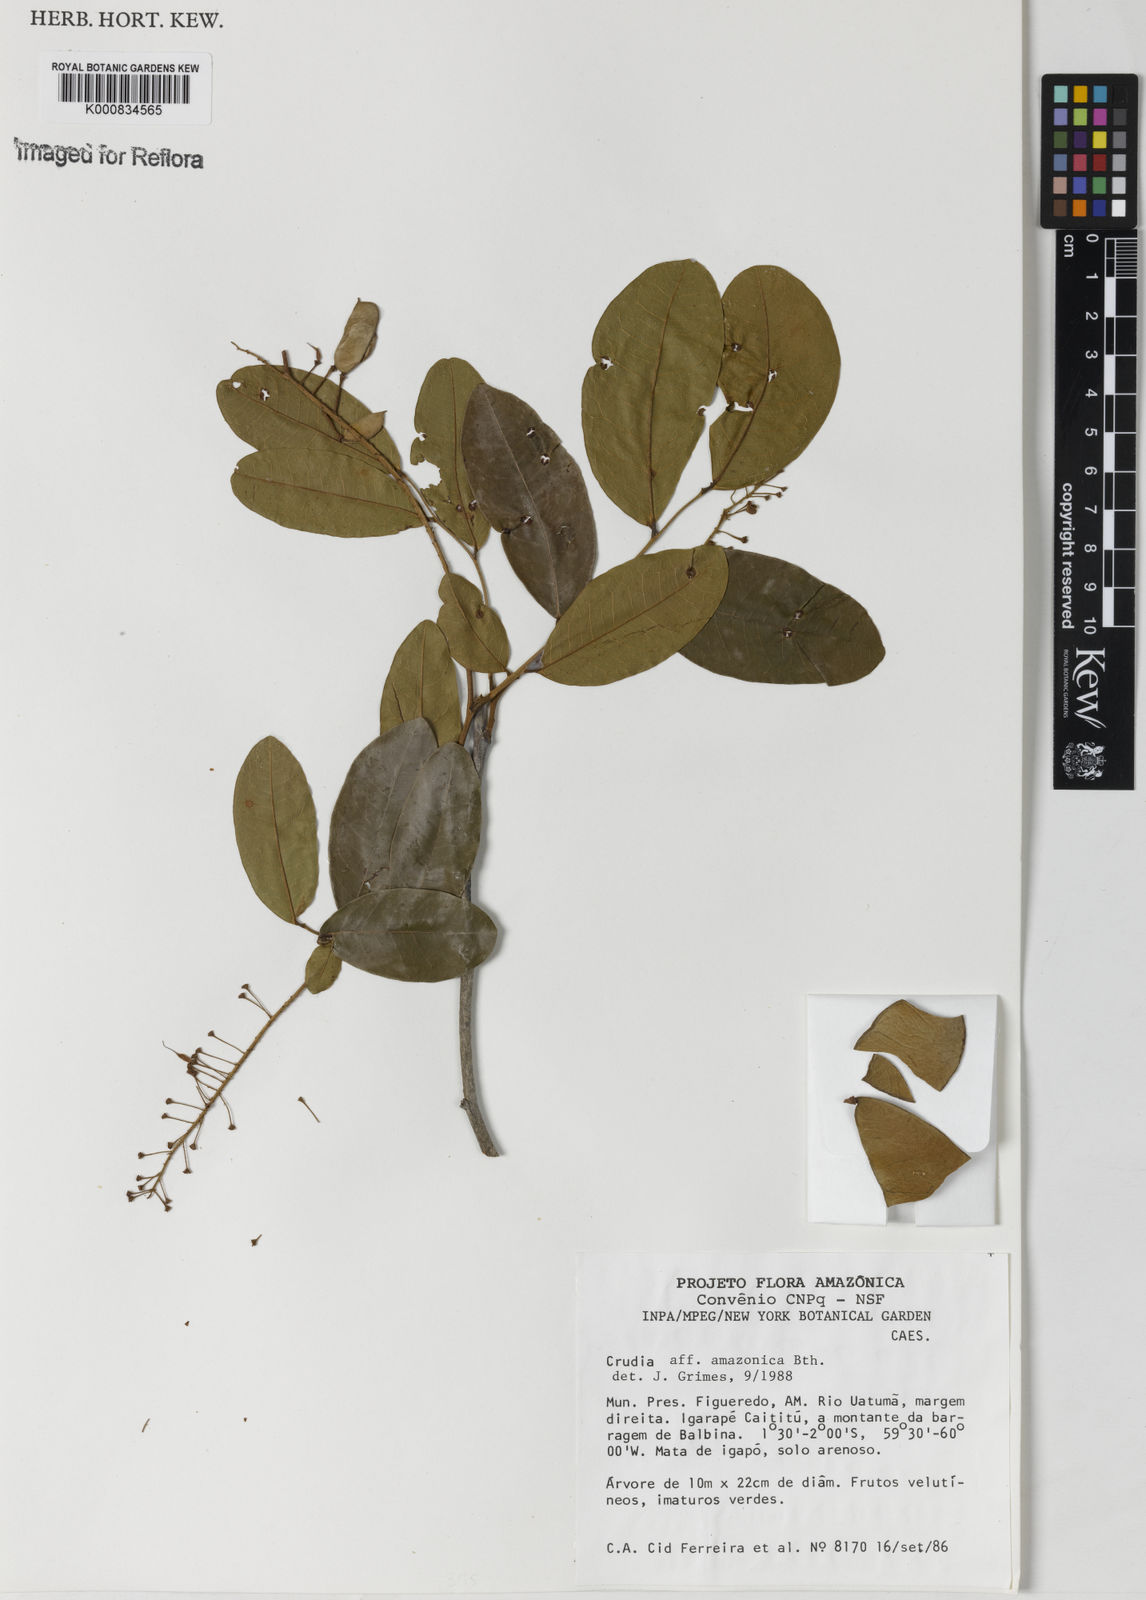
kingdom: Plantae
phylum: Tracheophyta
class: Magnoliopsida
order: Fabales
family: Fabaceae
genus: Crudia
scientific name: Crudia
